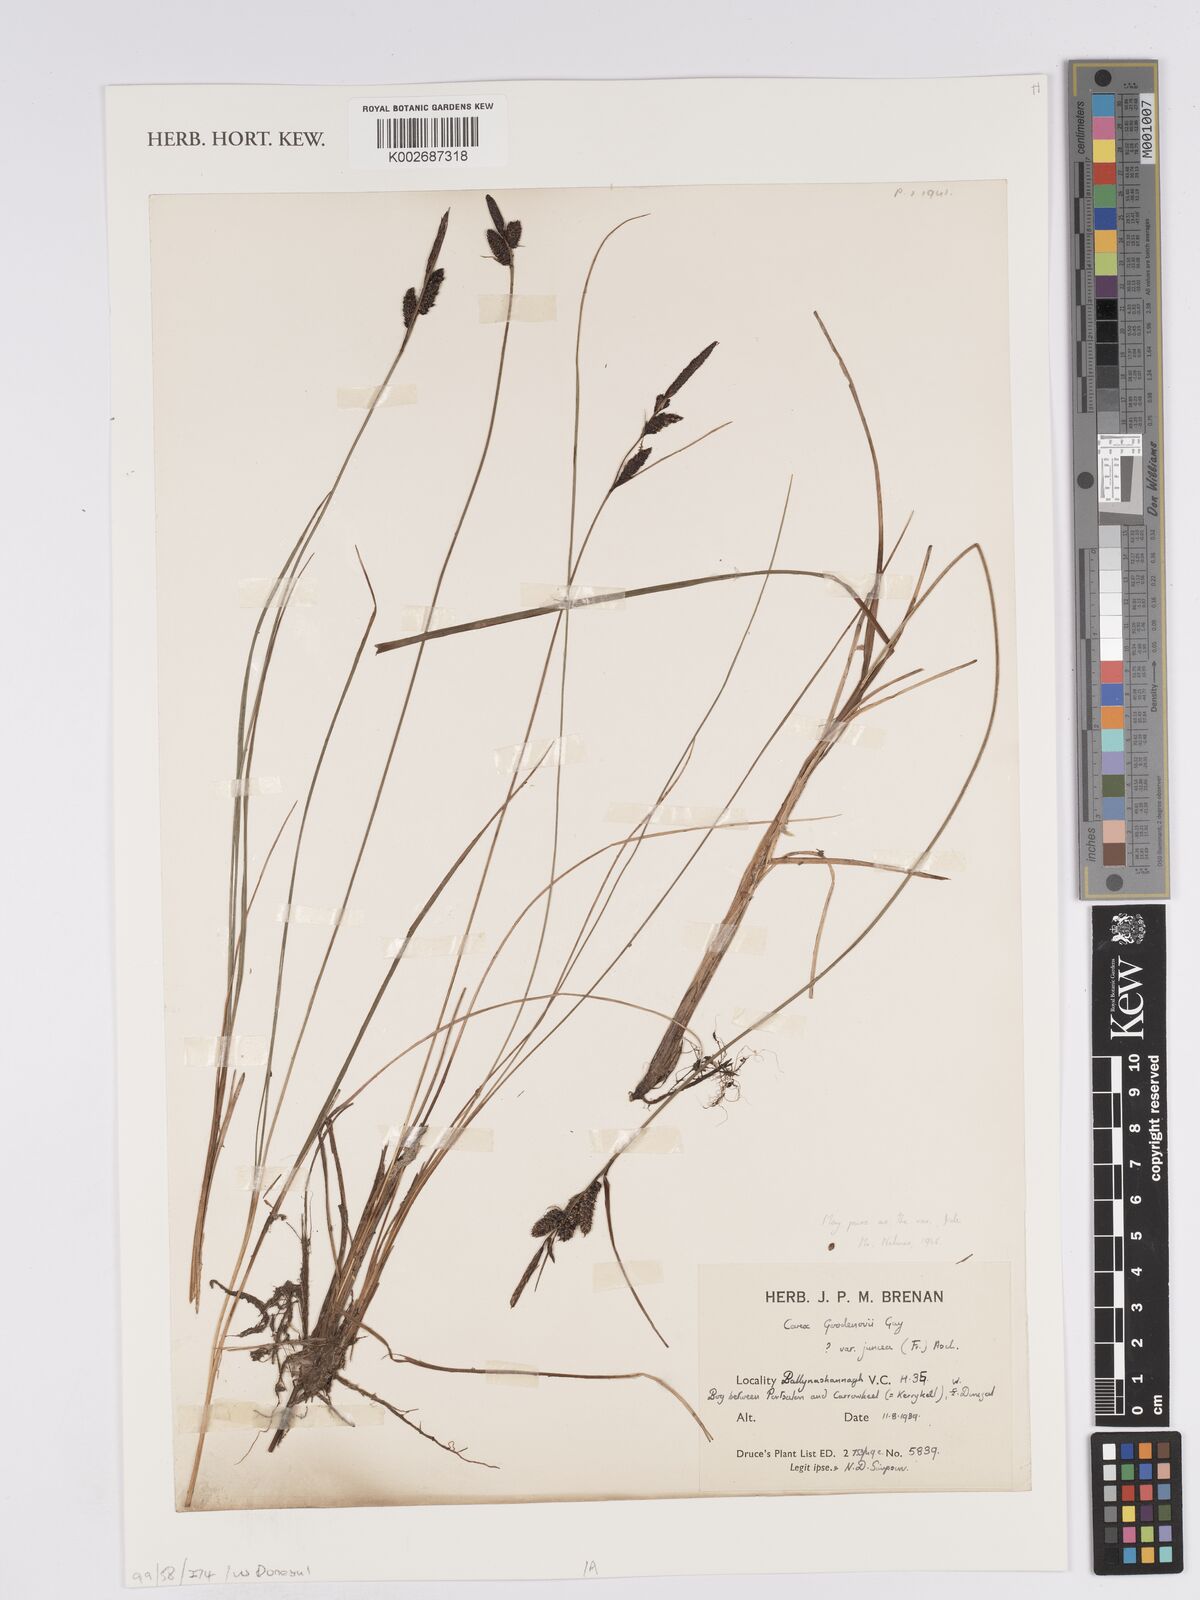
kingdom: Plantae
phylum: Tracheophyta
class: Liliopsida
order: Poales
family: Cyperaceae
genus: Carex
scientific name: Carex nigra
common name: Common sedge
